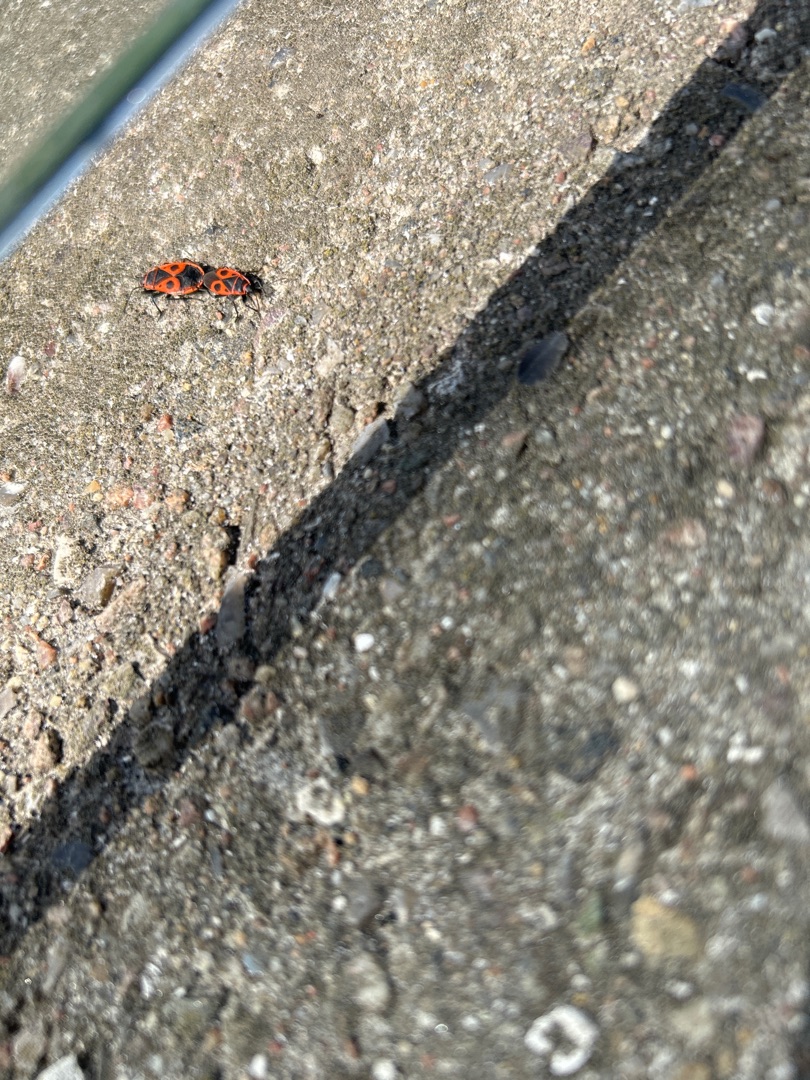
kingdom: Animalia
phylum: Arthropoda
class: Insecta
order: Hemiptera
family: Pyrrhocoridae
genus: Pyrrhocoris
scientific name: Pyrrhocoris apterus
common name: Ildtæge
